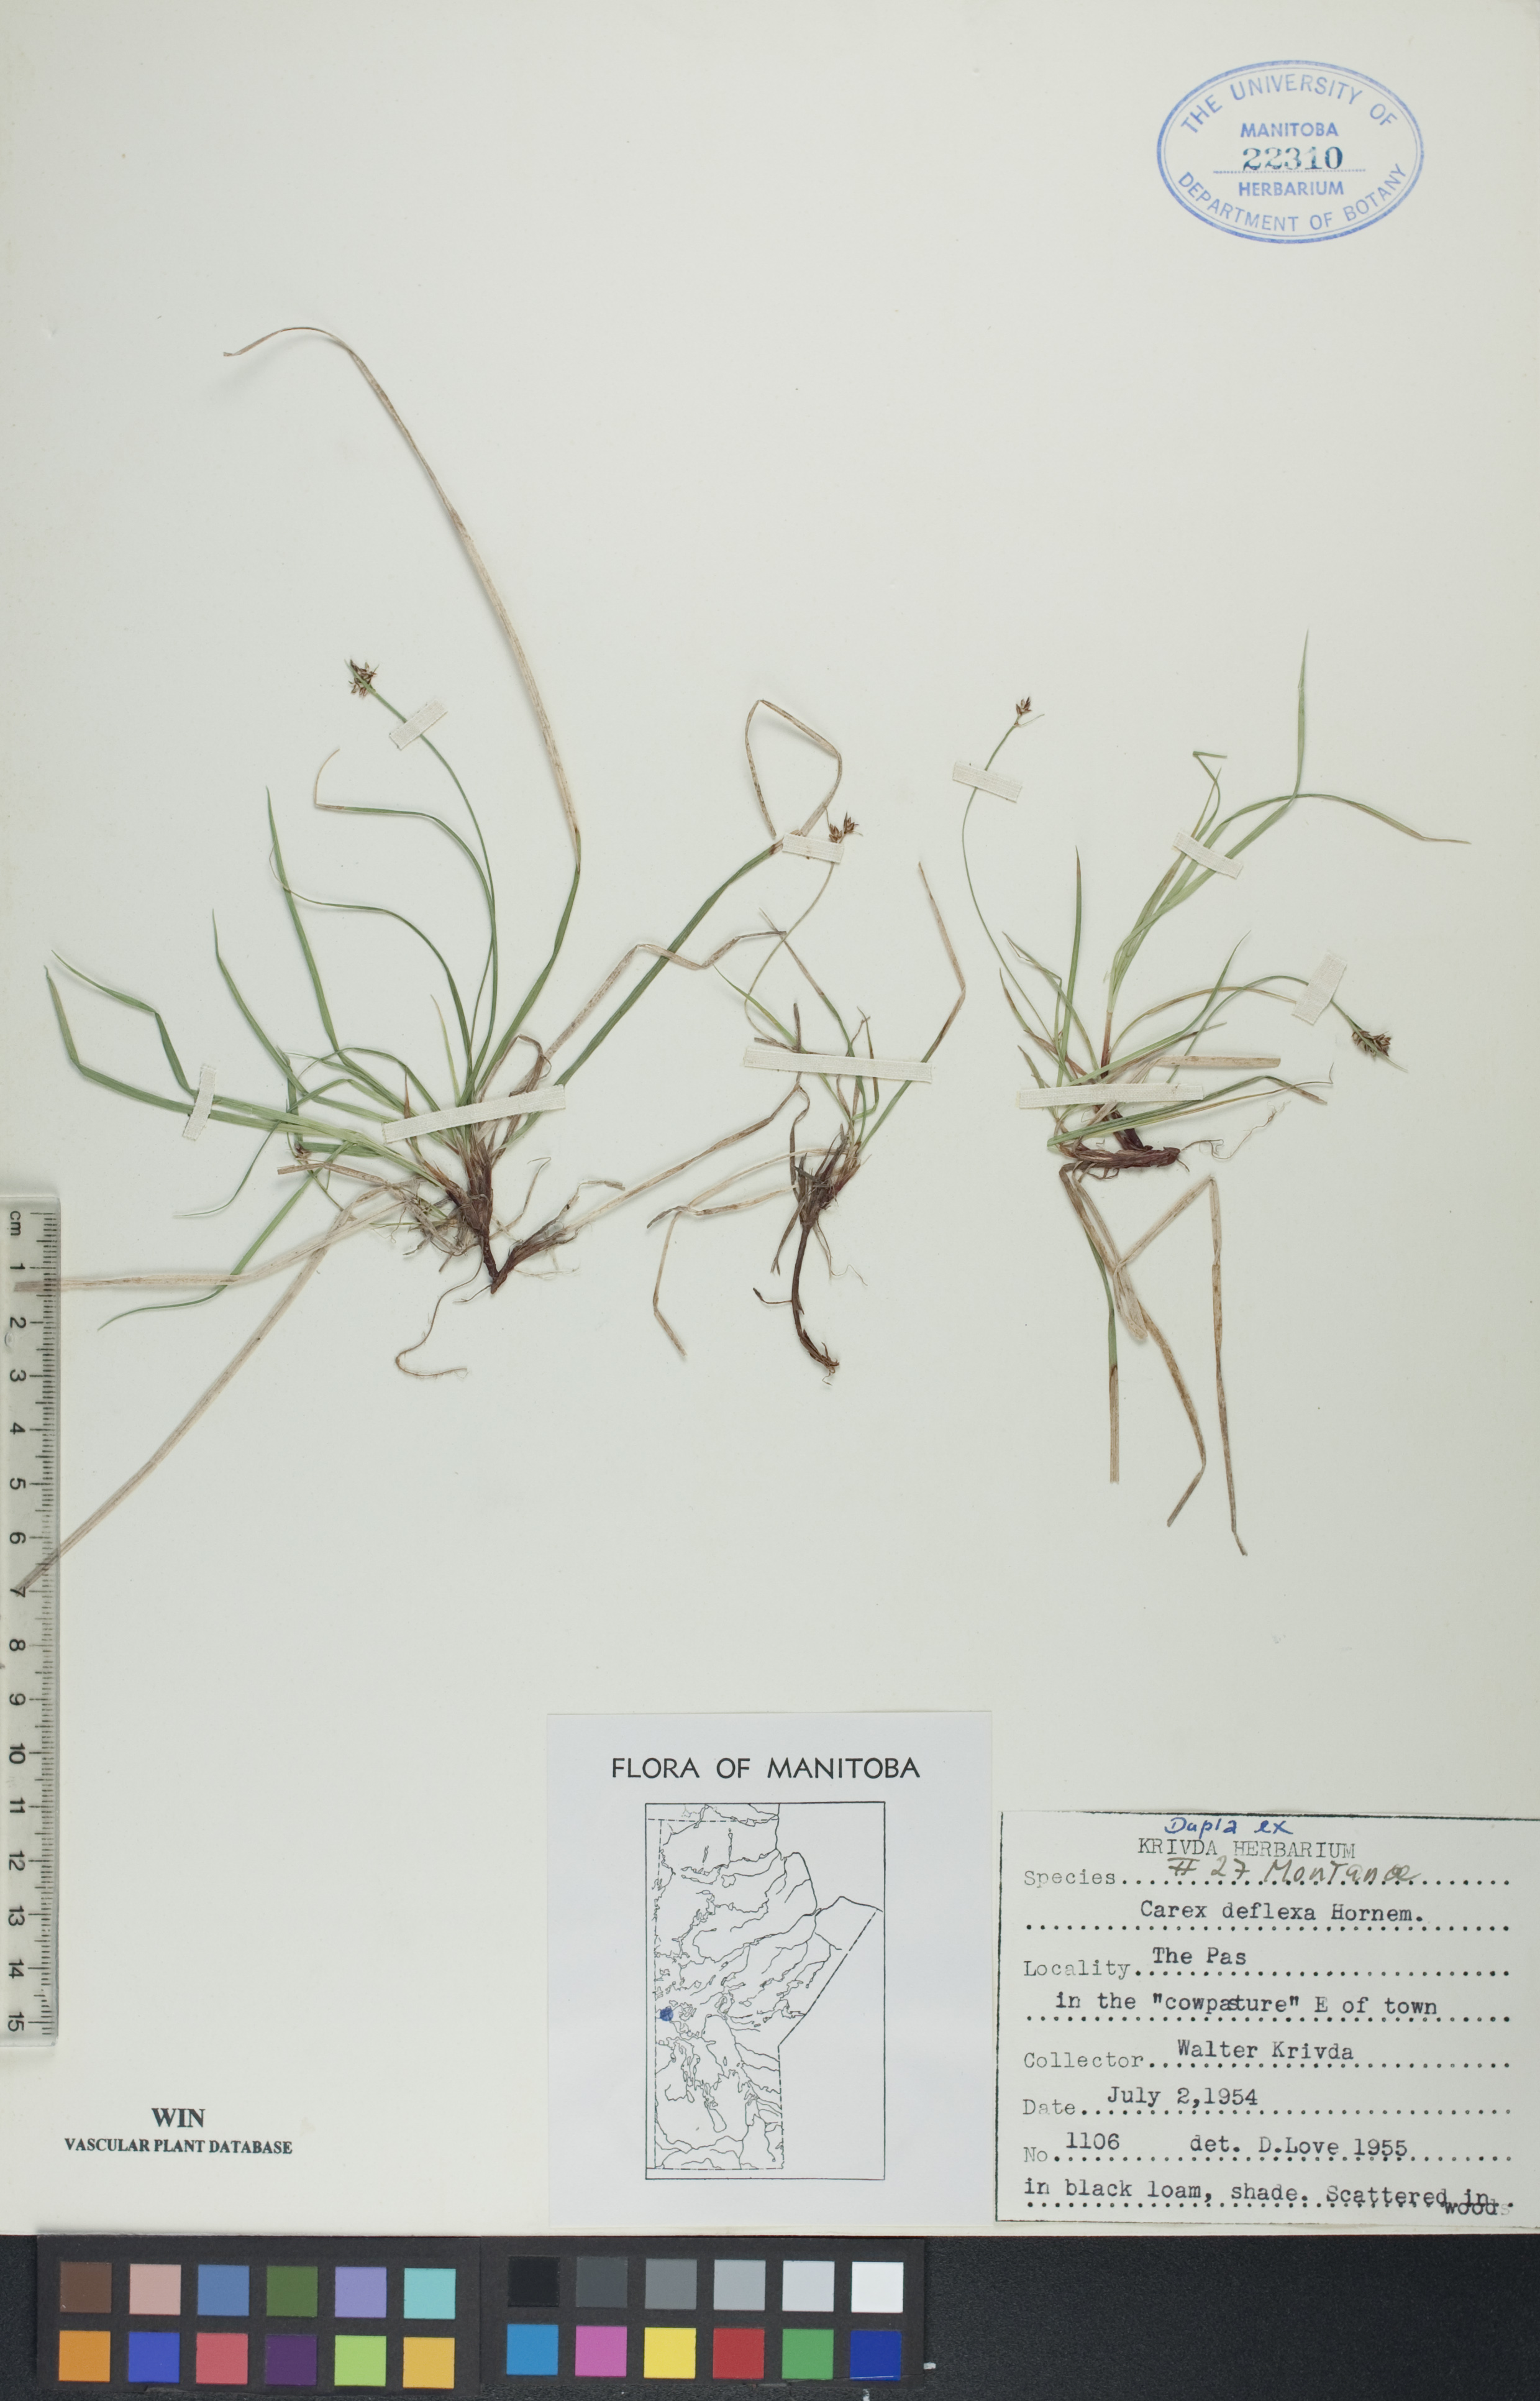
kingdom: Plantae
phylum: Tracheophyta
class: Liliopsida
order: Poales
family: Cyperaceae
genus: Carex
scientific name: Carex deflexa
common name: Bent northern sedge
